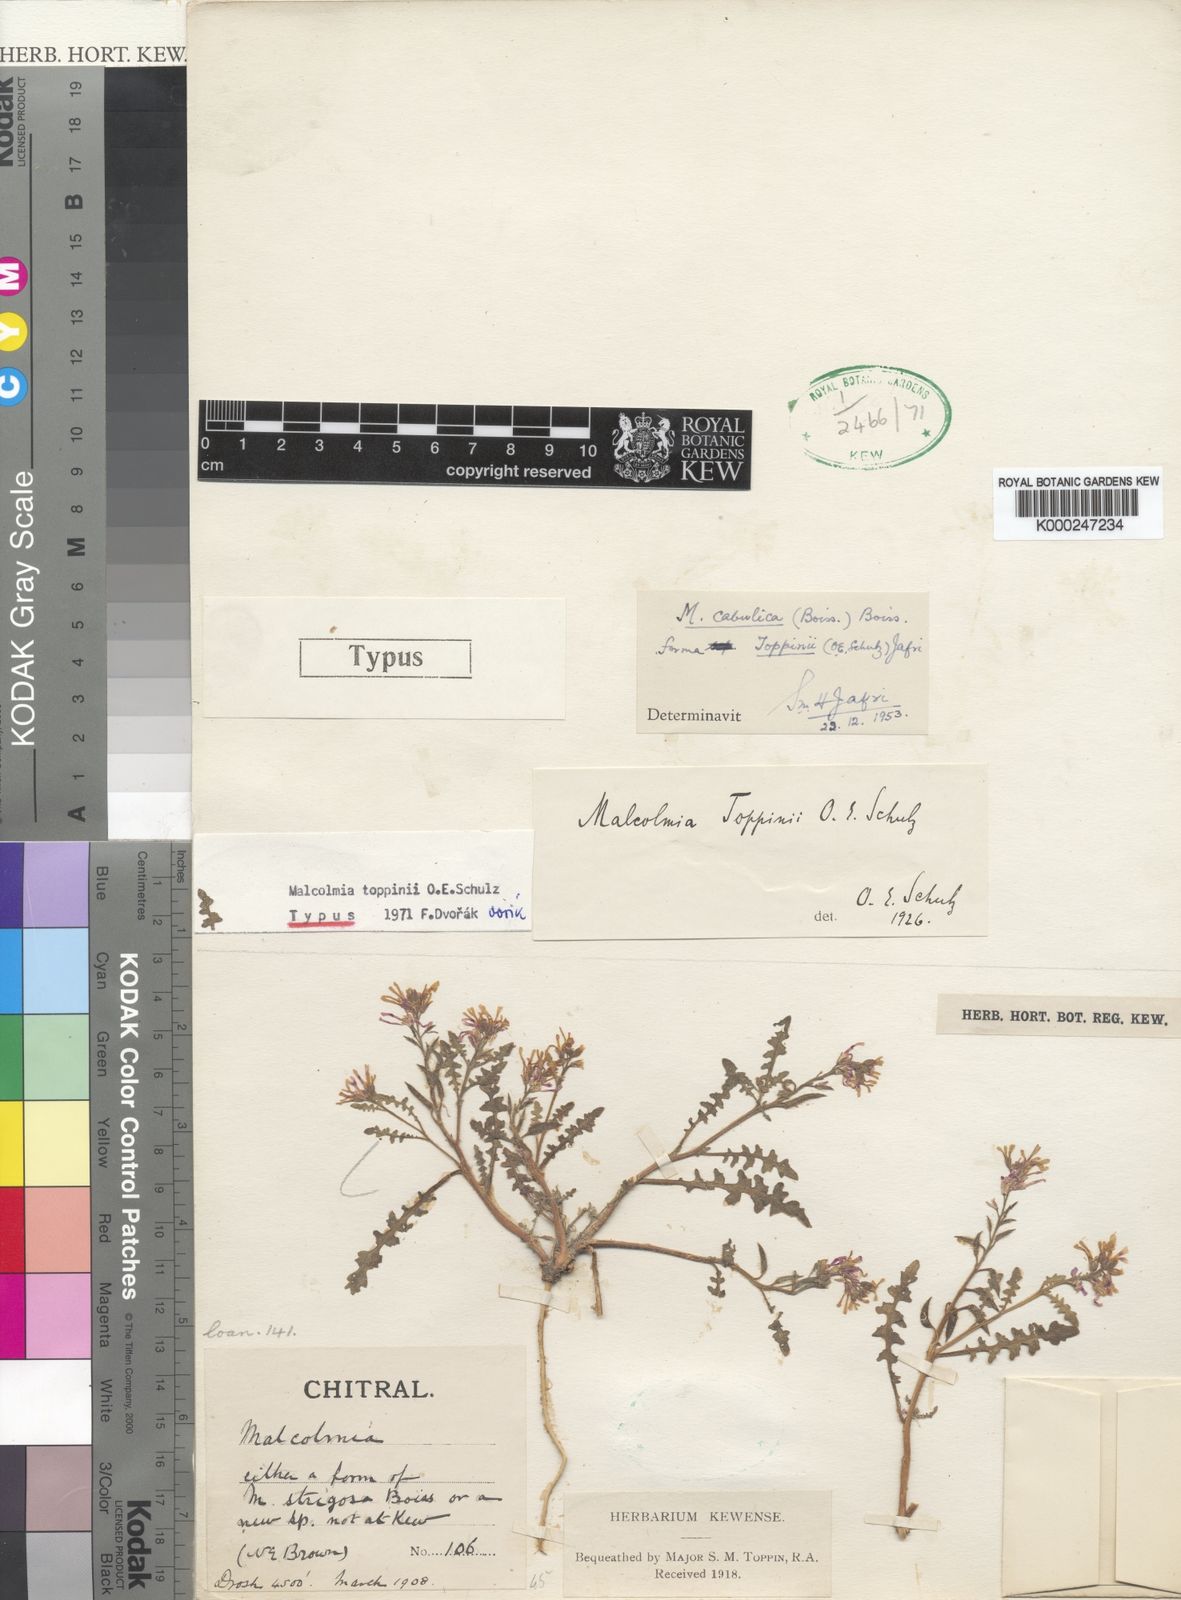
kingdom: Plantae
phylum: Tracheophyta
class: Magnoliopsida
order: Brassicales
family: Brassicaceae
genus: Strigosella
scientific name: Strigosella cabulica
